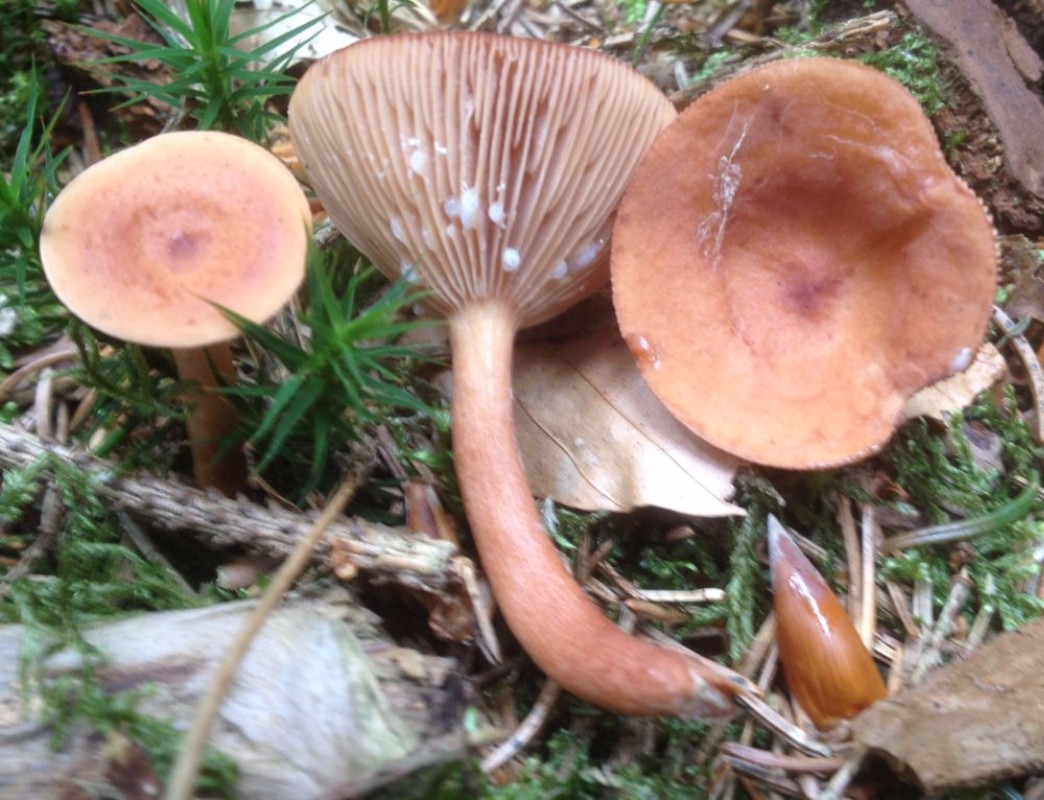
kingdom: Fungi
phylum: Basidiomycota
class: Agaricomycetes
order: Russulales
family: Russulaceae
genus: Lactarius
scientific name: Lactarius tabidus
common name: rynket mælkehat
